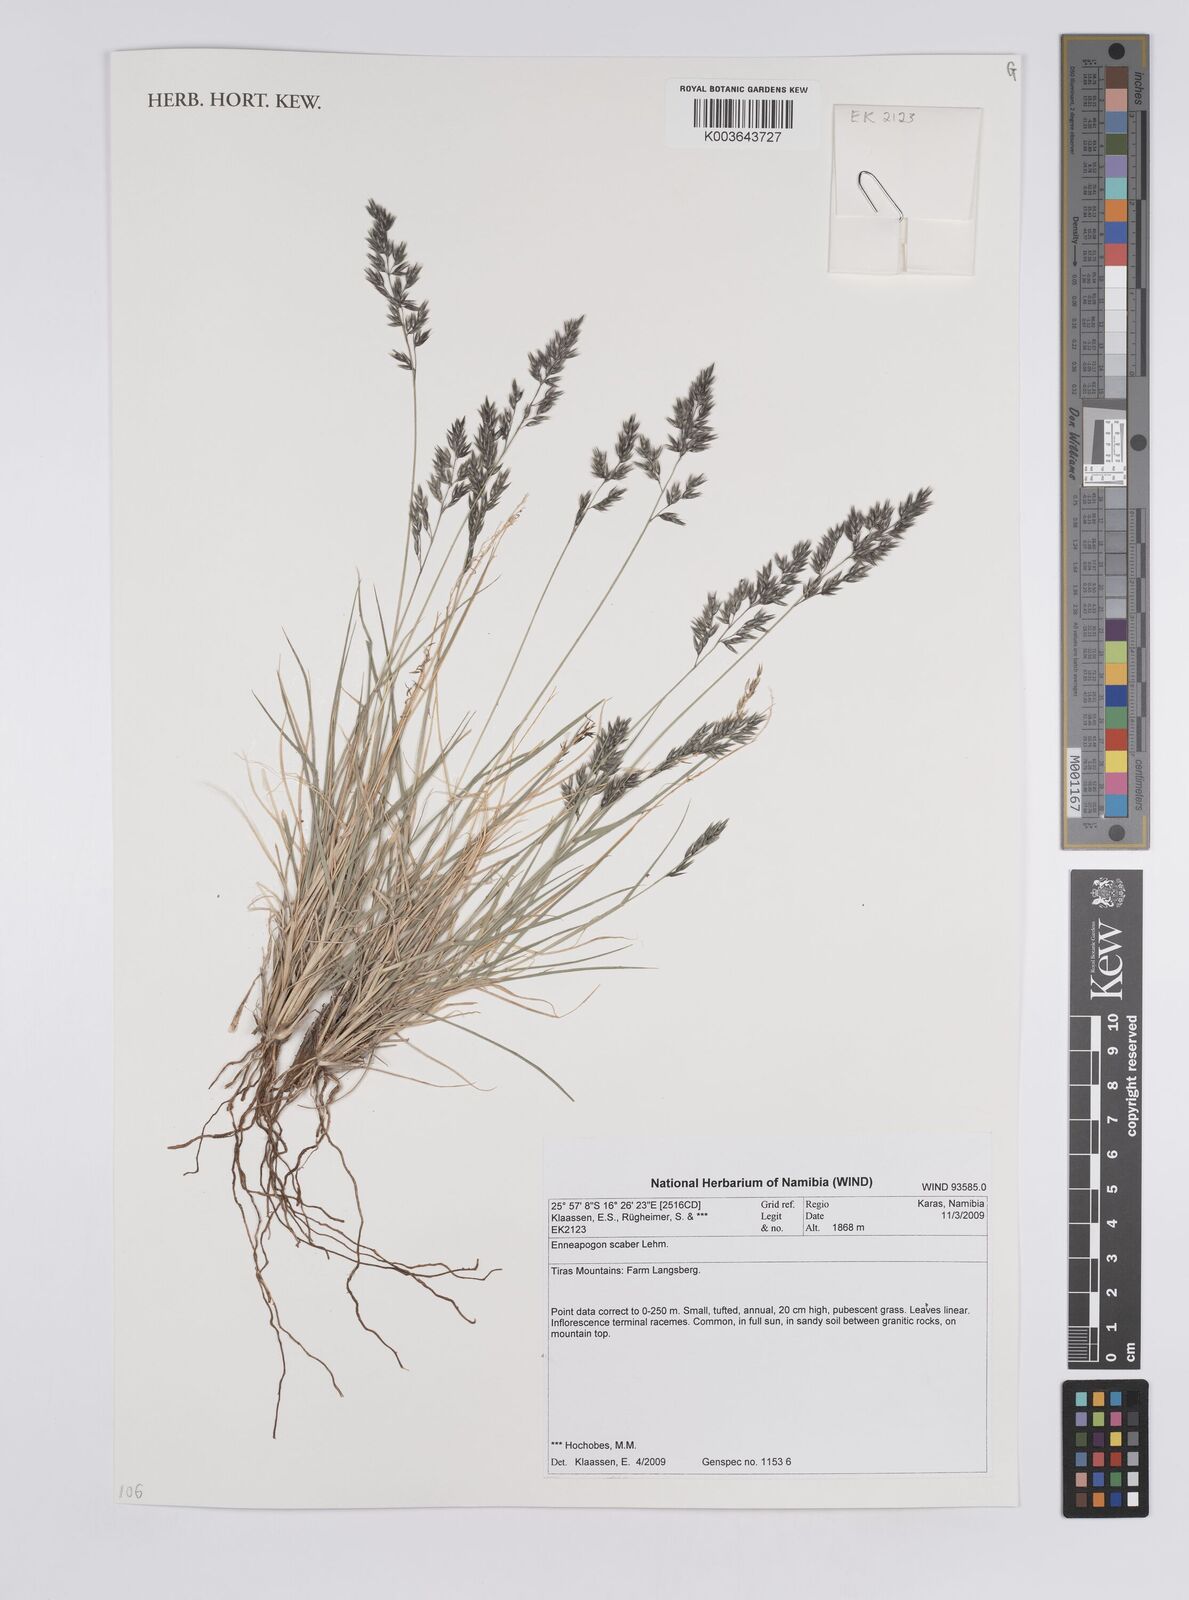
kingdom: Plantae
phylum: Tracheophyta
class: Liliopsida
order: Poales
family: Poaceae
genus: Enneapogon
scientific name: Enneapogon scaber
